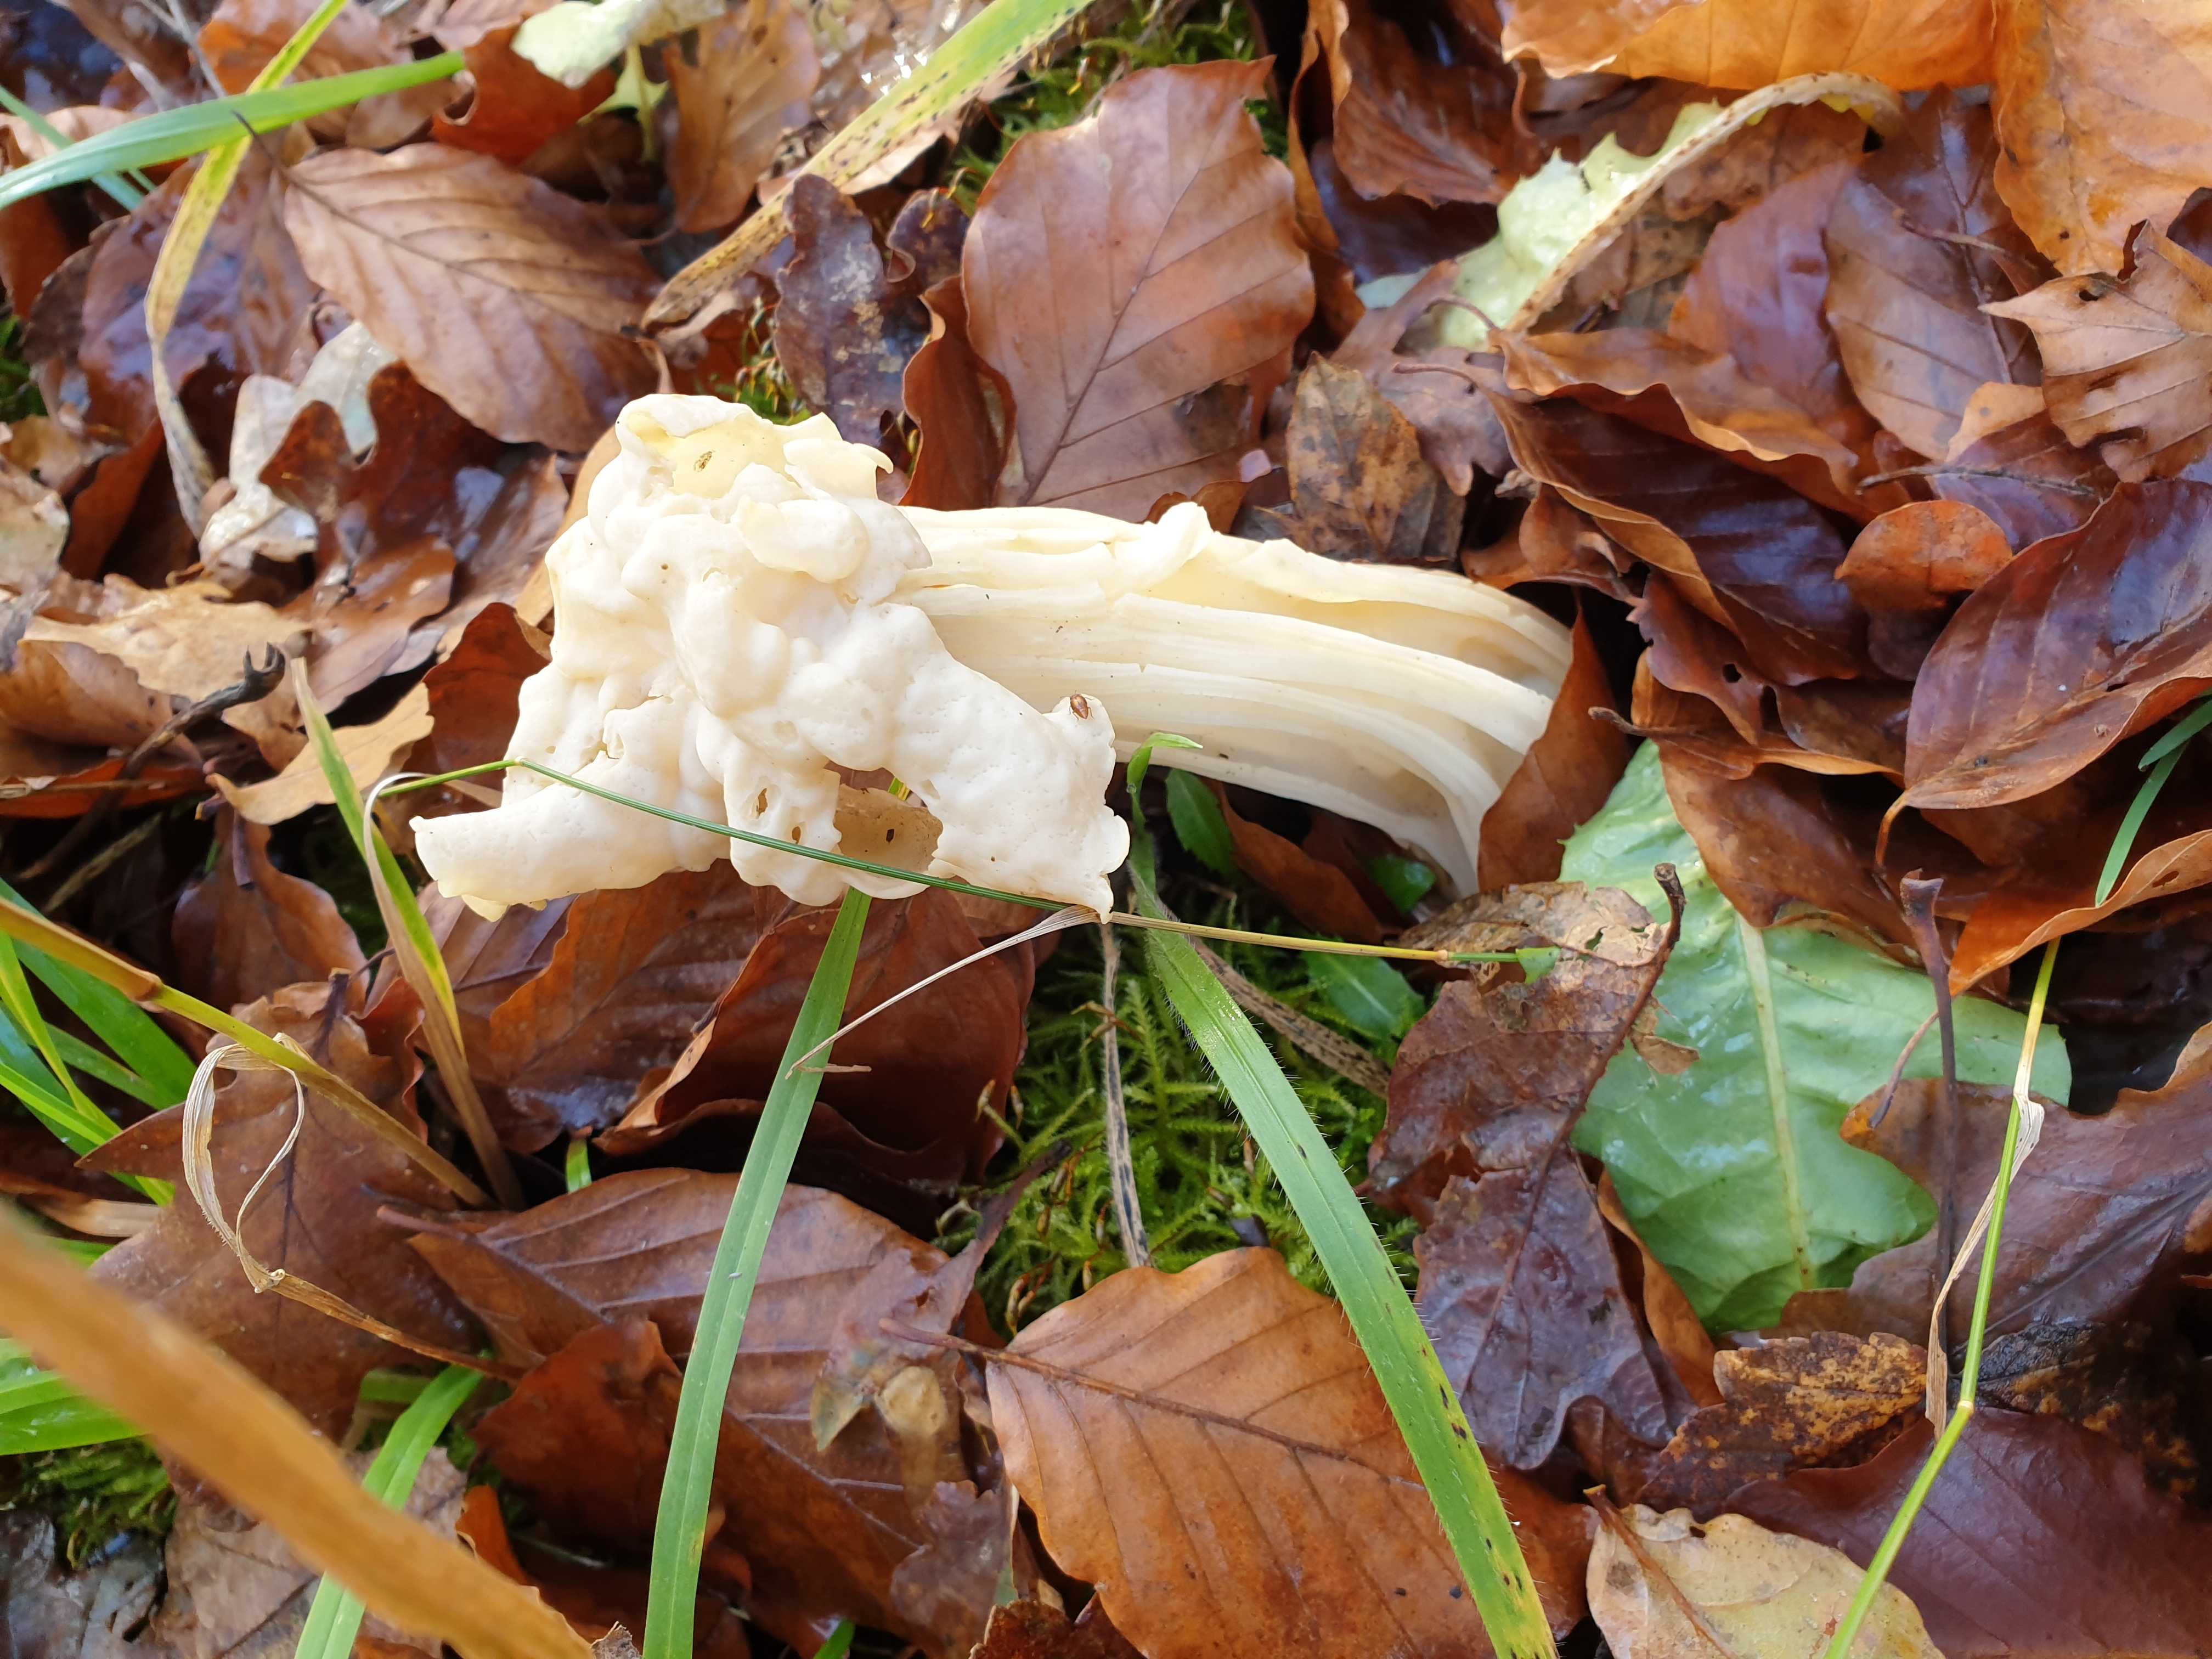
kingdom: Fungi
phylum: Ascomycota
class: Pezizomycetes
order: Pezizales
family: Helvellaceae
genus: Helvella
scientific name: Helvella crispa
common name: kruset foldhat
